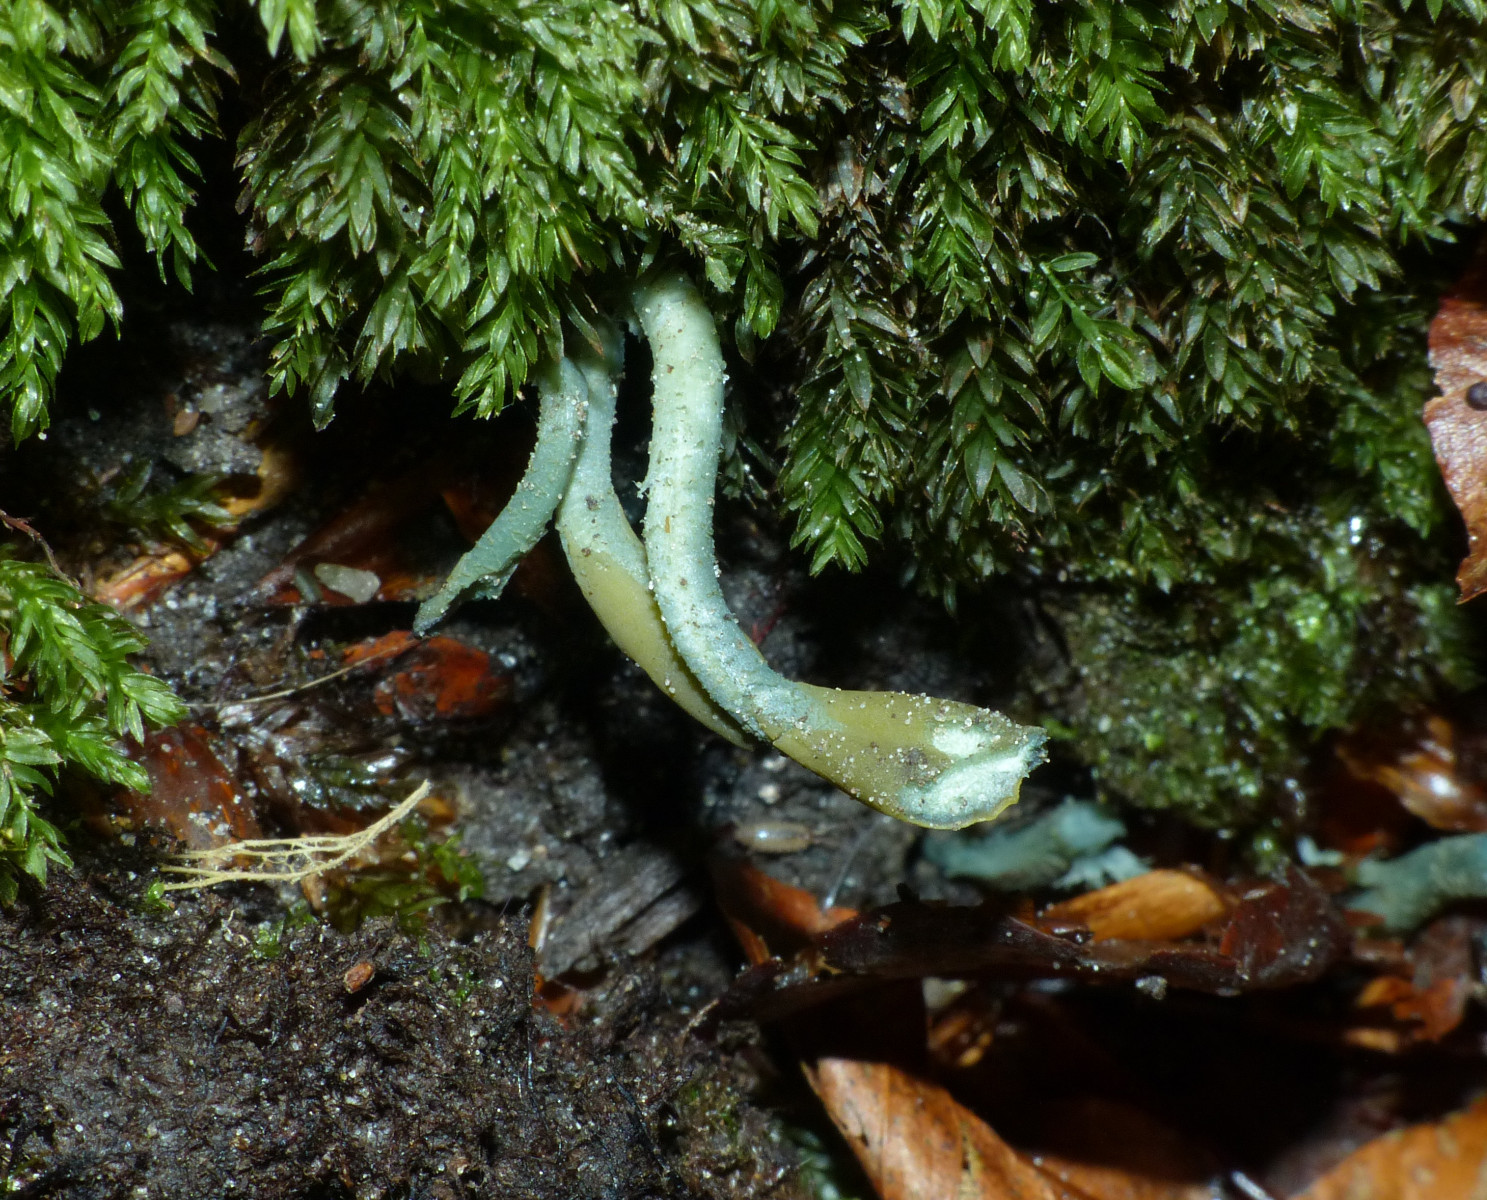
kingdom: Fungi
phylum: Ascomycota
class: Leotiomycetes
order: Leotiales
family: Leotiaceae
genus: Microglossum
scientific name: Microglossum griseoviride
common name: grågrøn farvetunge
